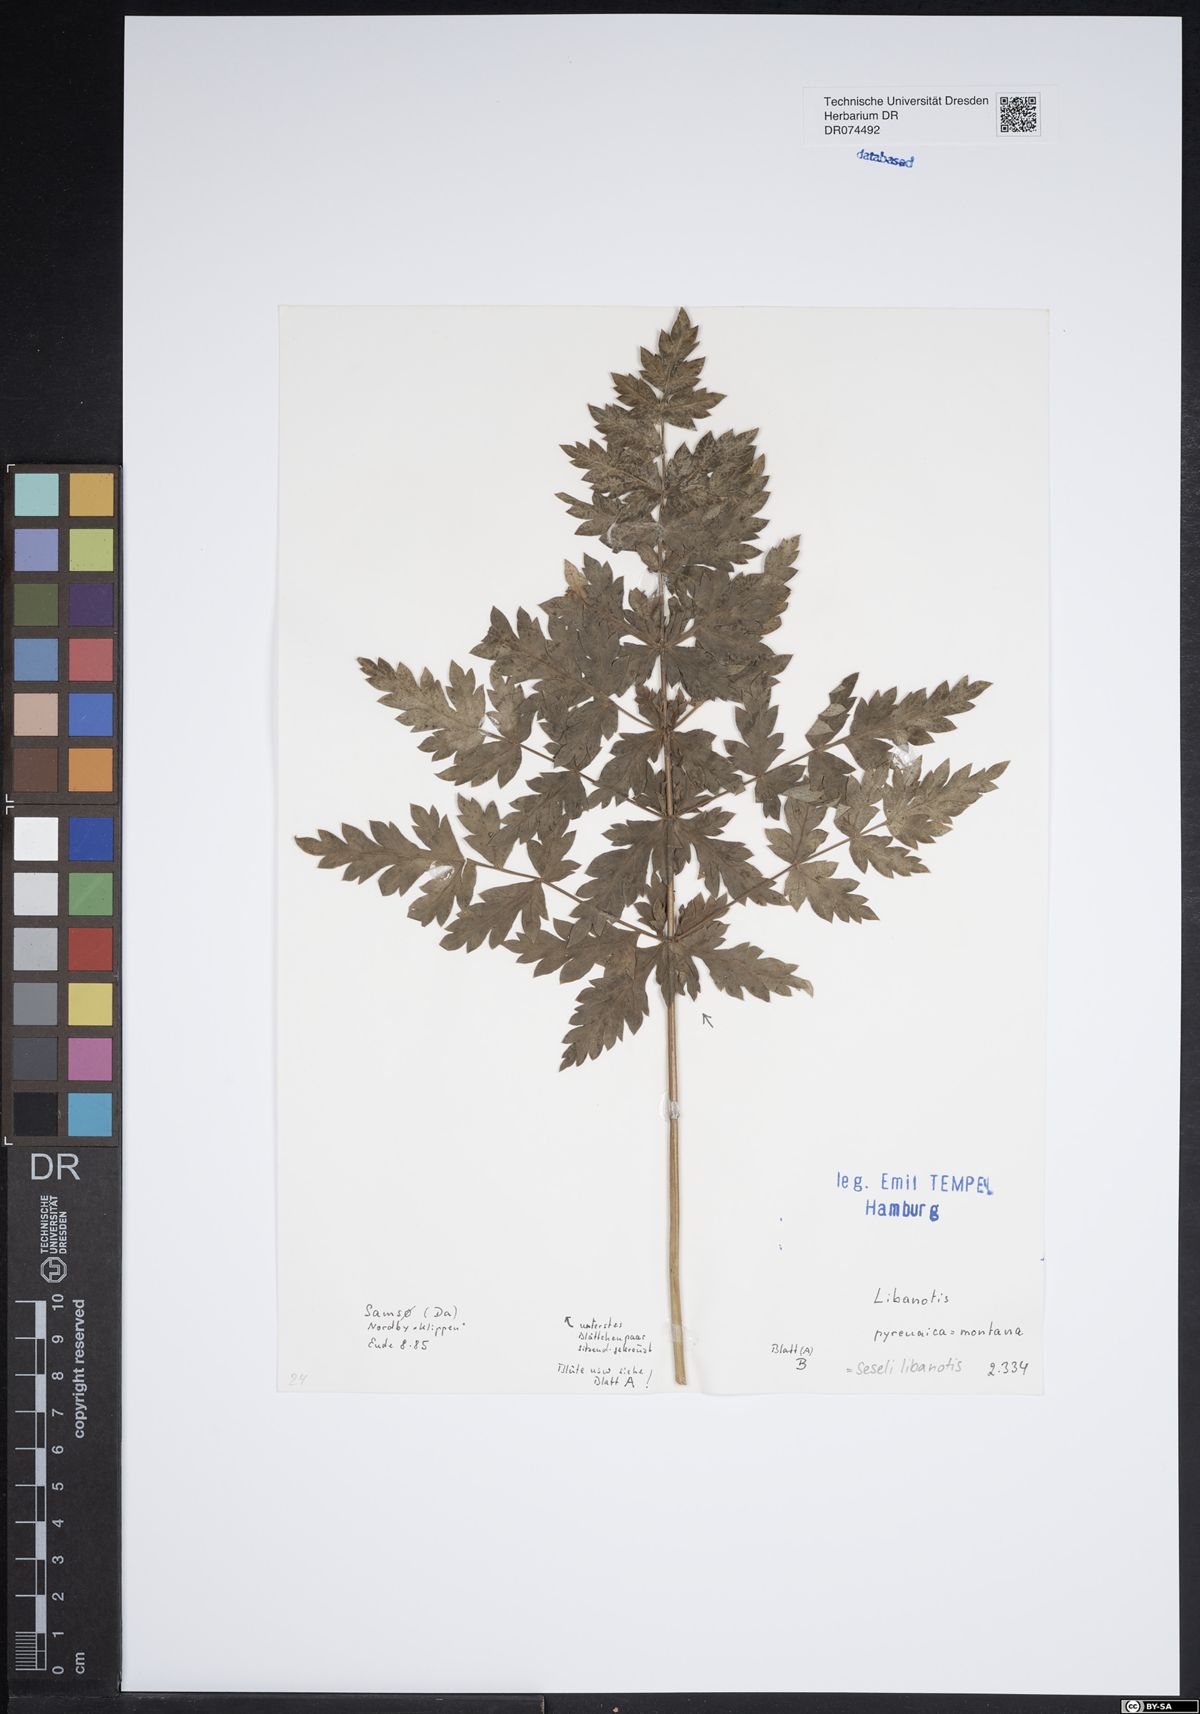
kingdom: Plantae
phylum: Tracheophyta
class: Magnoliopsida
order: Apiales
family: Apiaceae
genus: Seseli
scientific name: Seseli libanotis
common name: Mooncarrot
